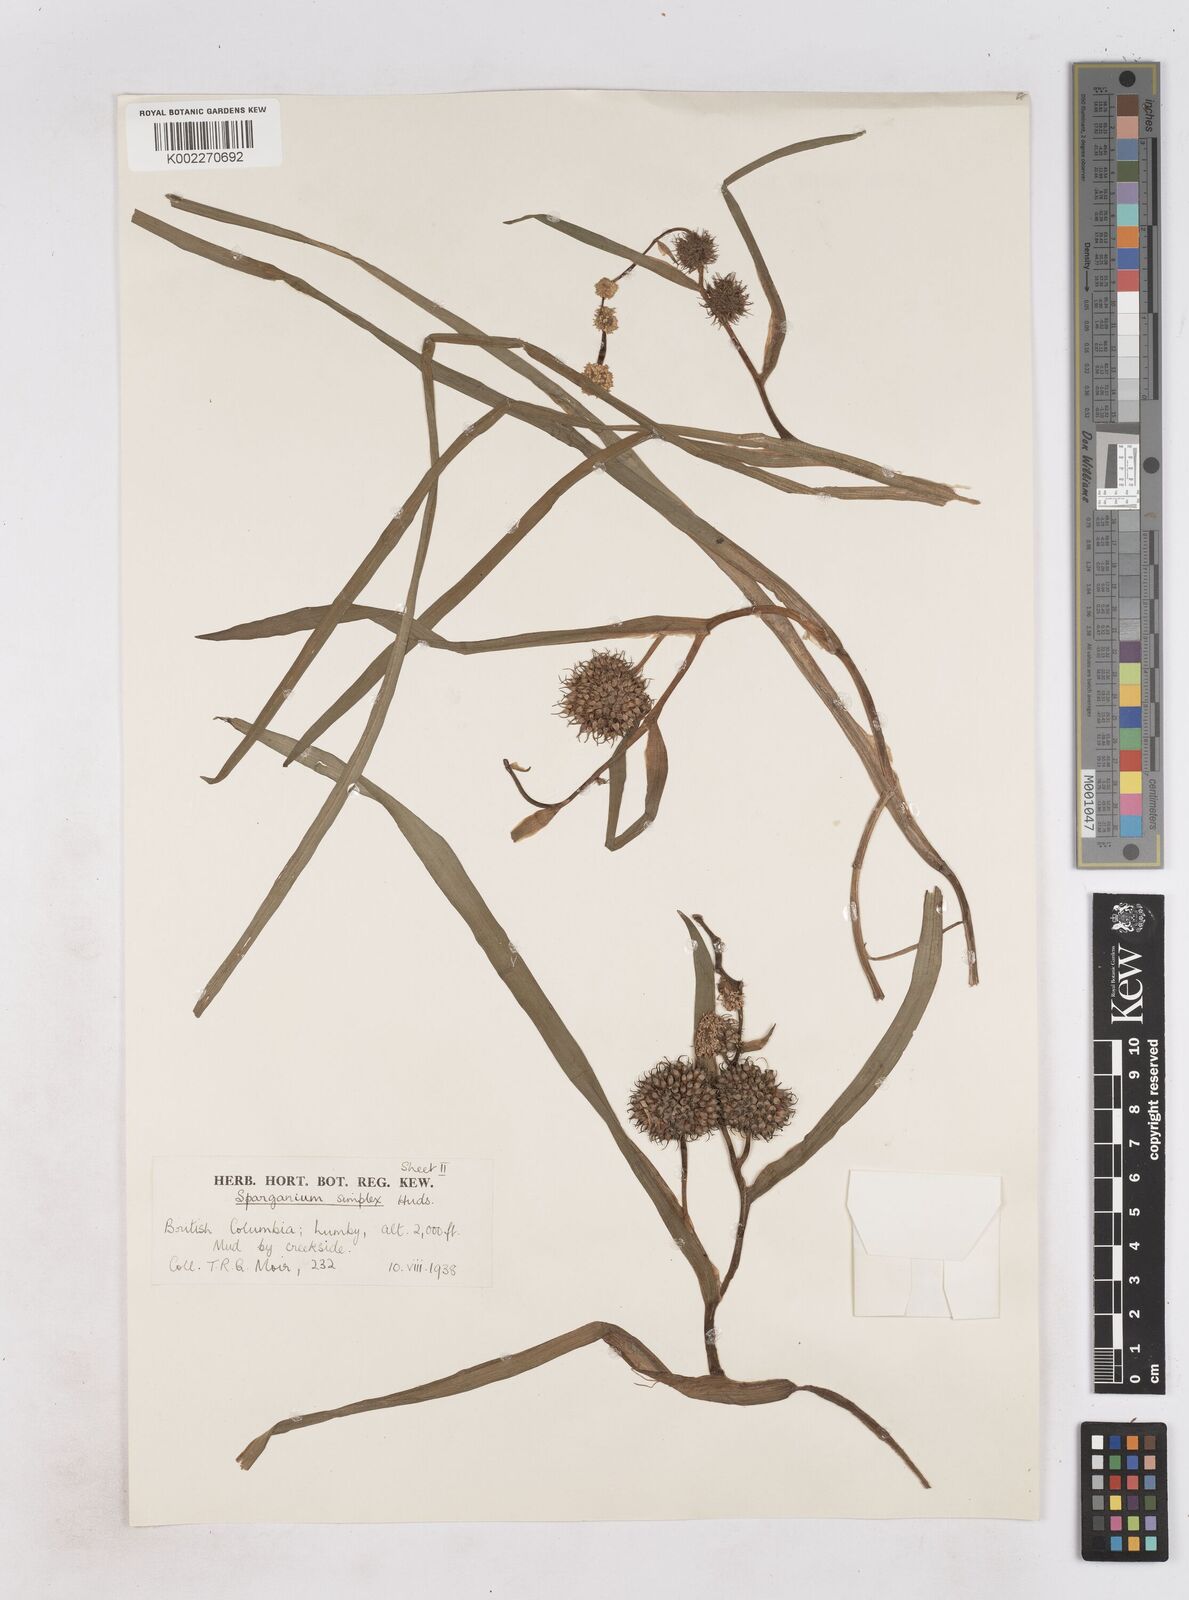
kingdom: Plantae
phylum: Tracheophyta
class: Liliopsida
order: Poales
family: Typhaceae
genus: Sparganium
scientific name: Sparganium emersum
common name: Unbranched bur-reed
